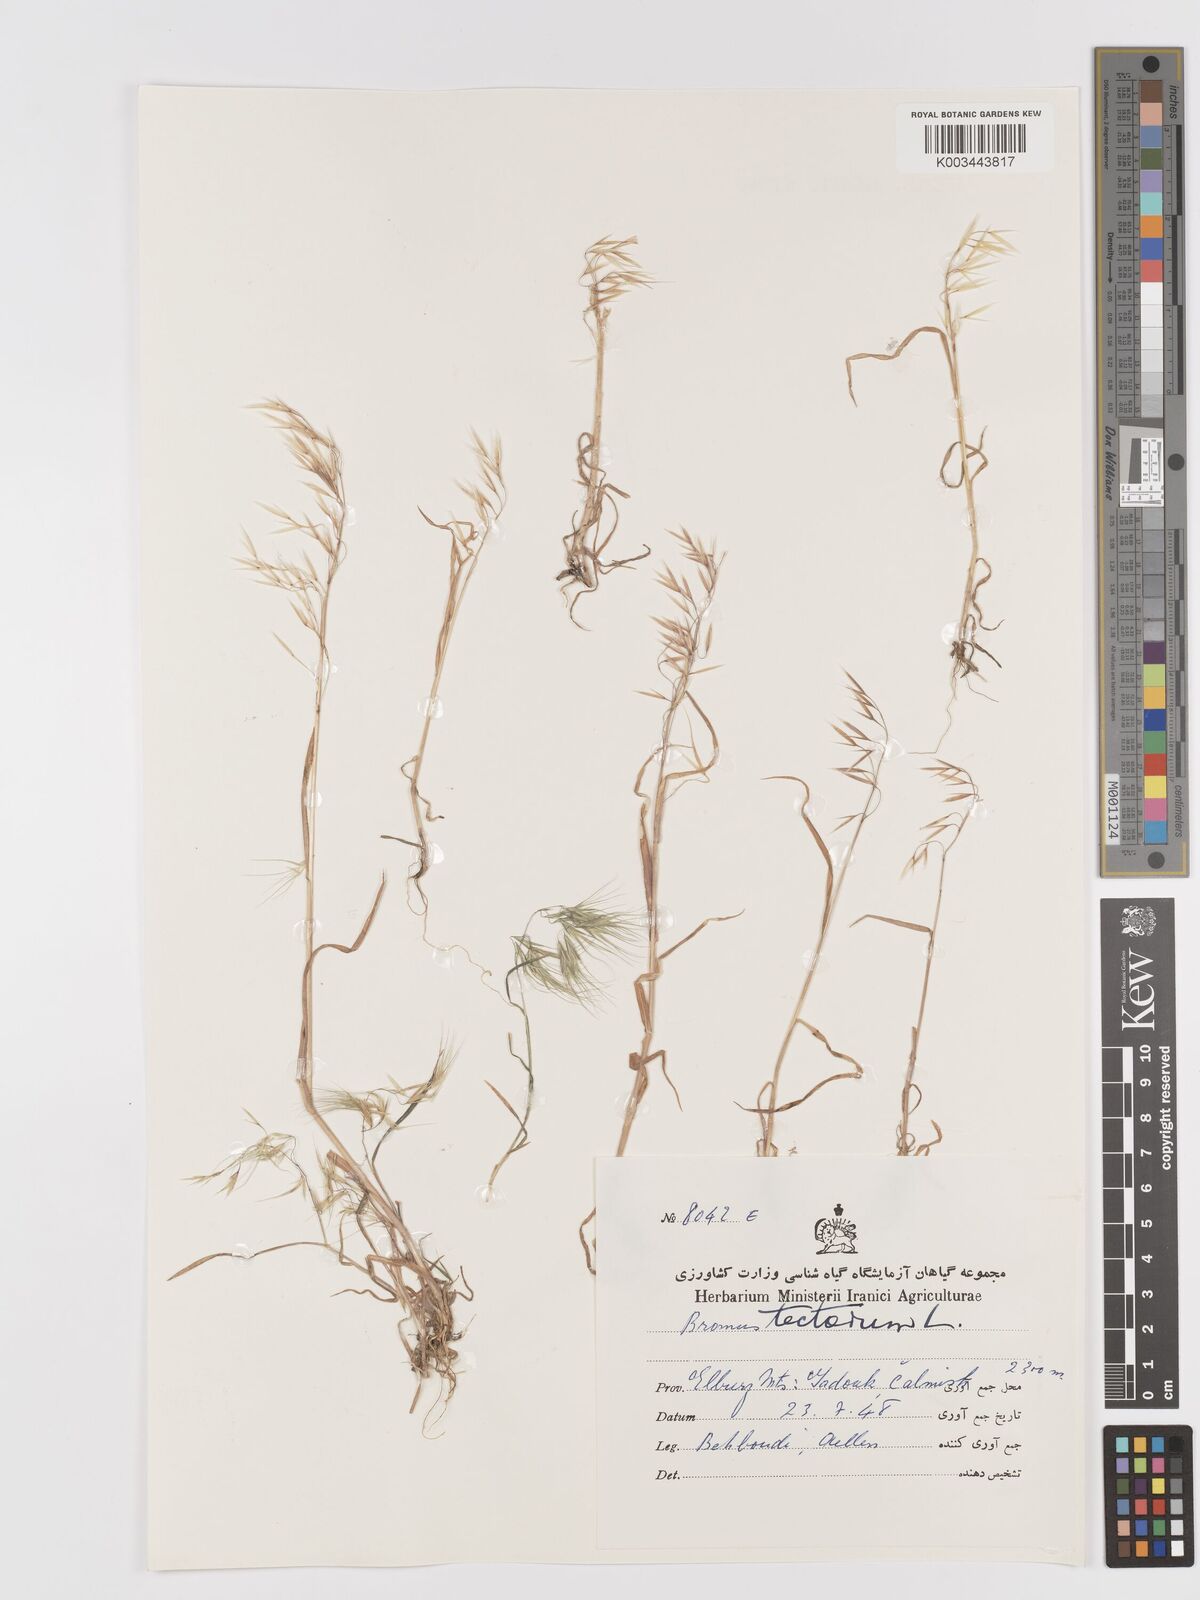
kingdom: Plantae
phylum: Tracheophyta
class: Liliopsida
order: Poales
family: Poaceae
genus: Bromus
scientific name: Bromus tectorum
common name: Cheatgrass
